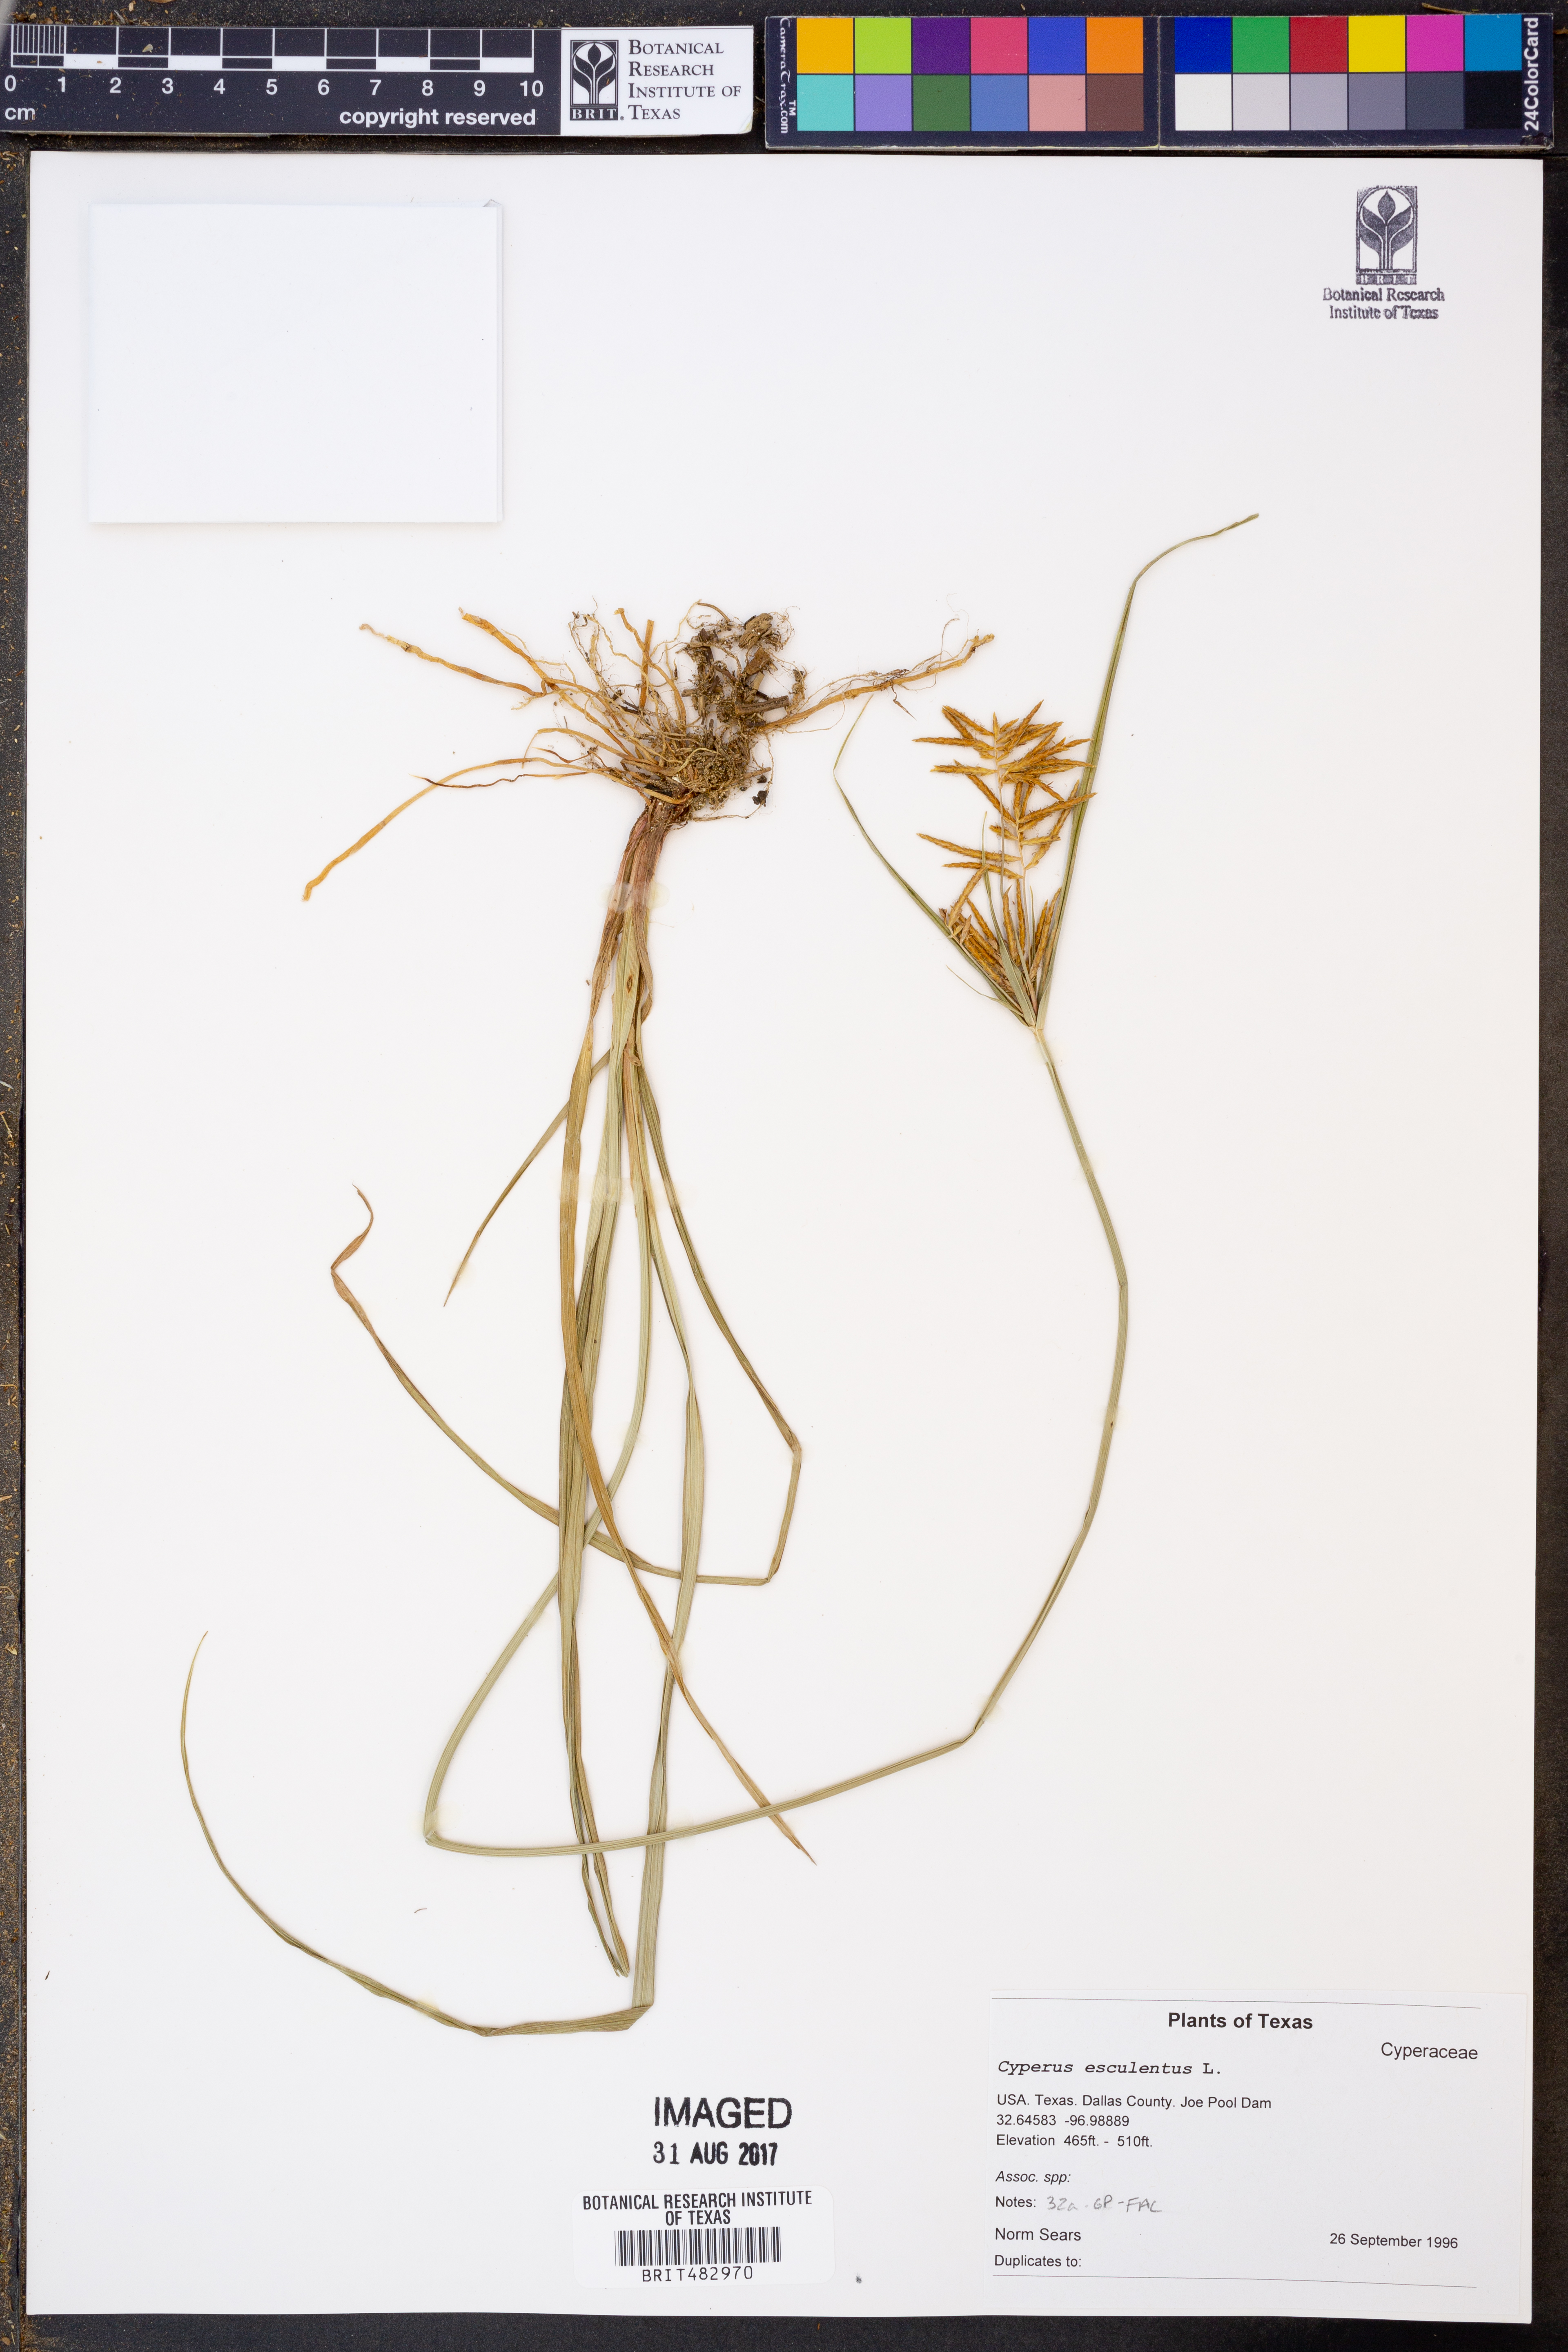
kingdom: Plantae
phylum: Tracheophyta
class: Liliopsida
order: Poales
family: Cyperaceae
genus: Cyperus
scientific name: Cyperus esculentus
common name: Yellow nutsedge
